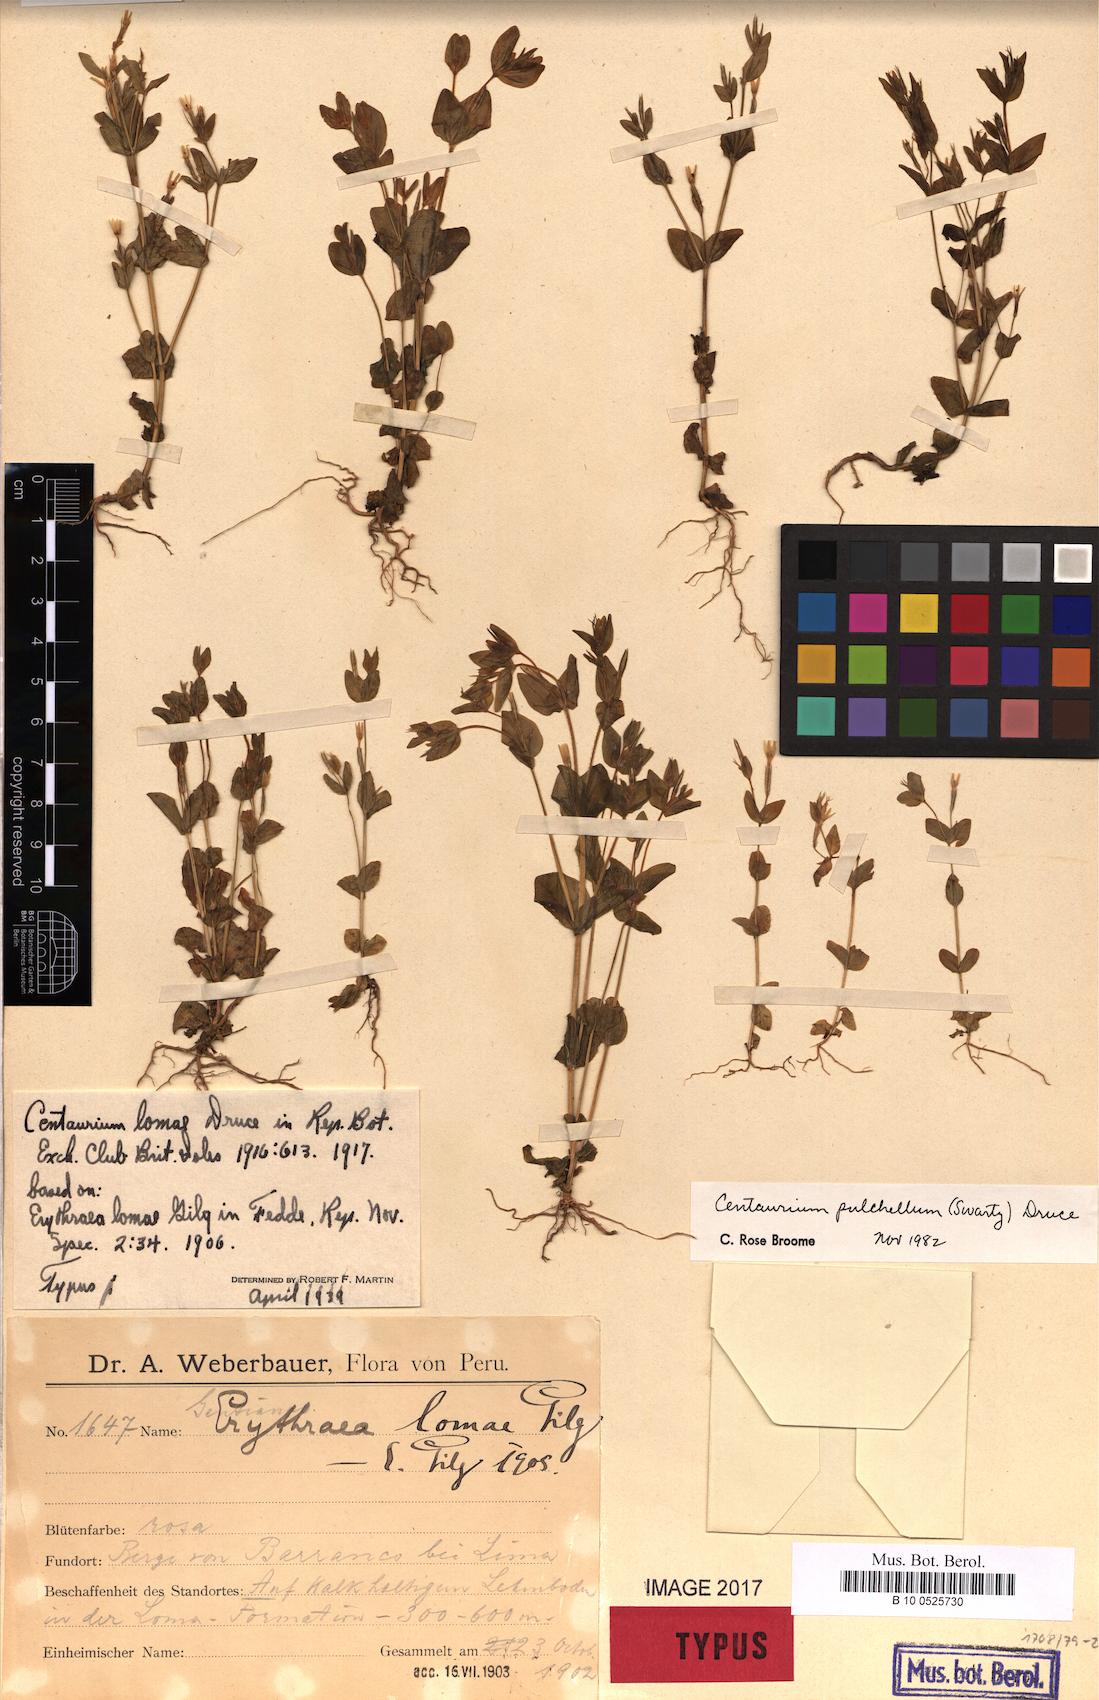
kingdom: Plantae
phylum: Tracheophyta
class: Magnoliopsida
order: Gentianales
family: Gentianaceae
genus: Centaurium
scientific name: Centaurium pulchellum
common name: Lesser centaury
